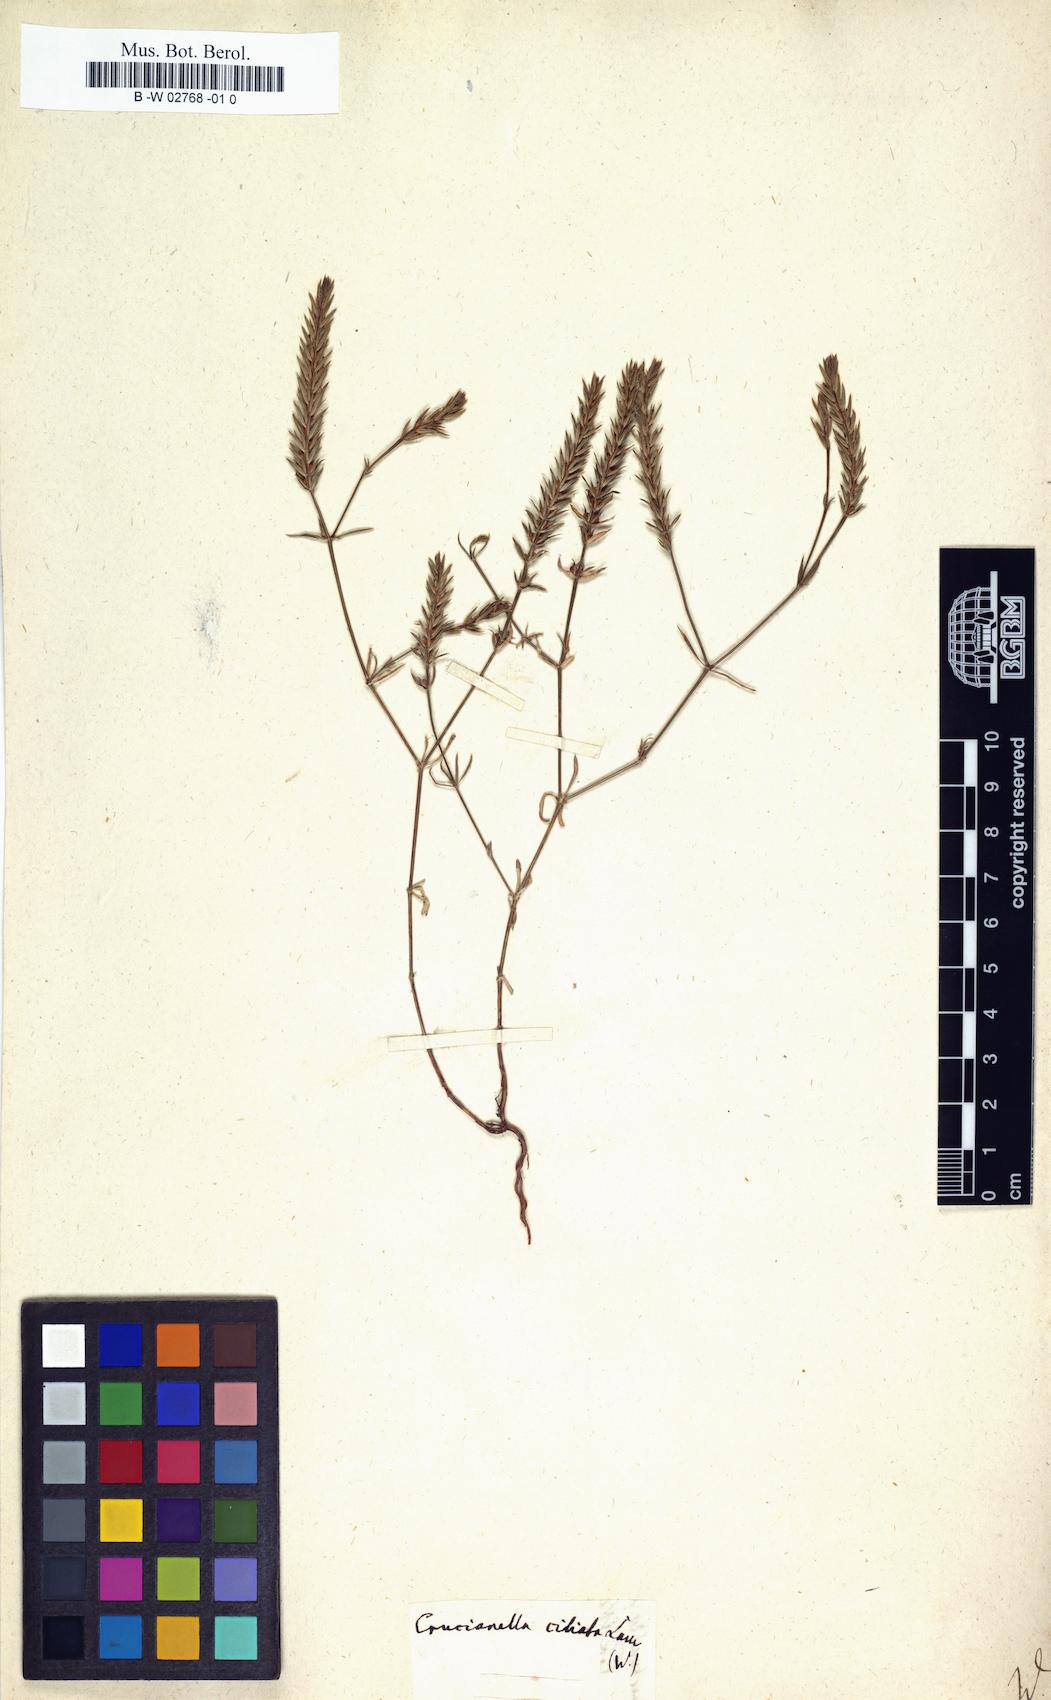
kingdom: Plantae
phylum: Tracheophyta
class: Magnoliopsida
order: Gentianales
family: Rubiaceae
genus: Crucianella
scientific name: Crucianella ciliata
